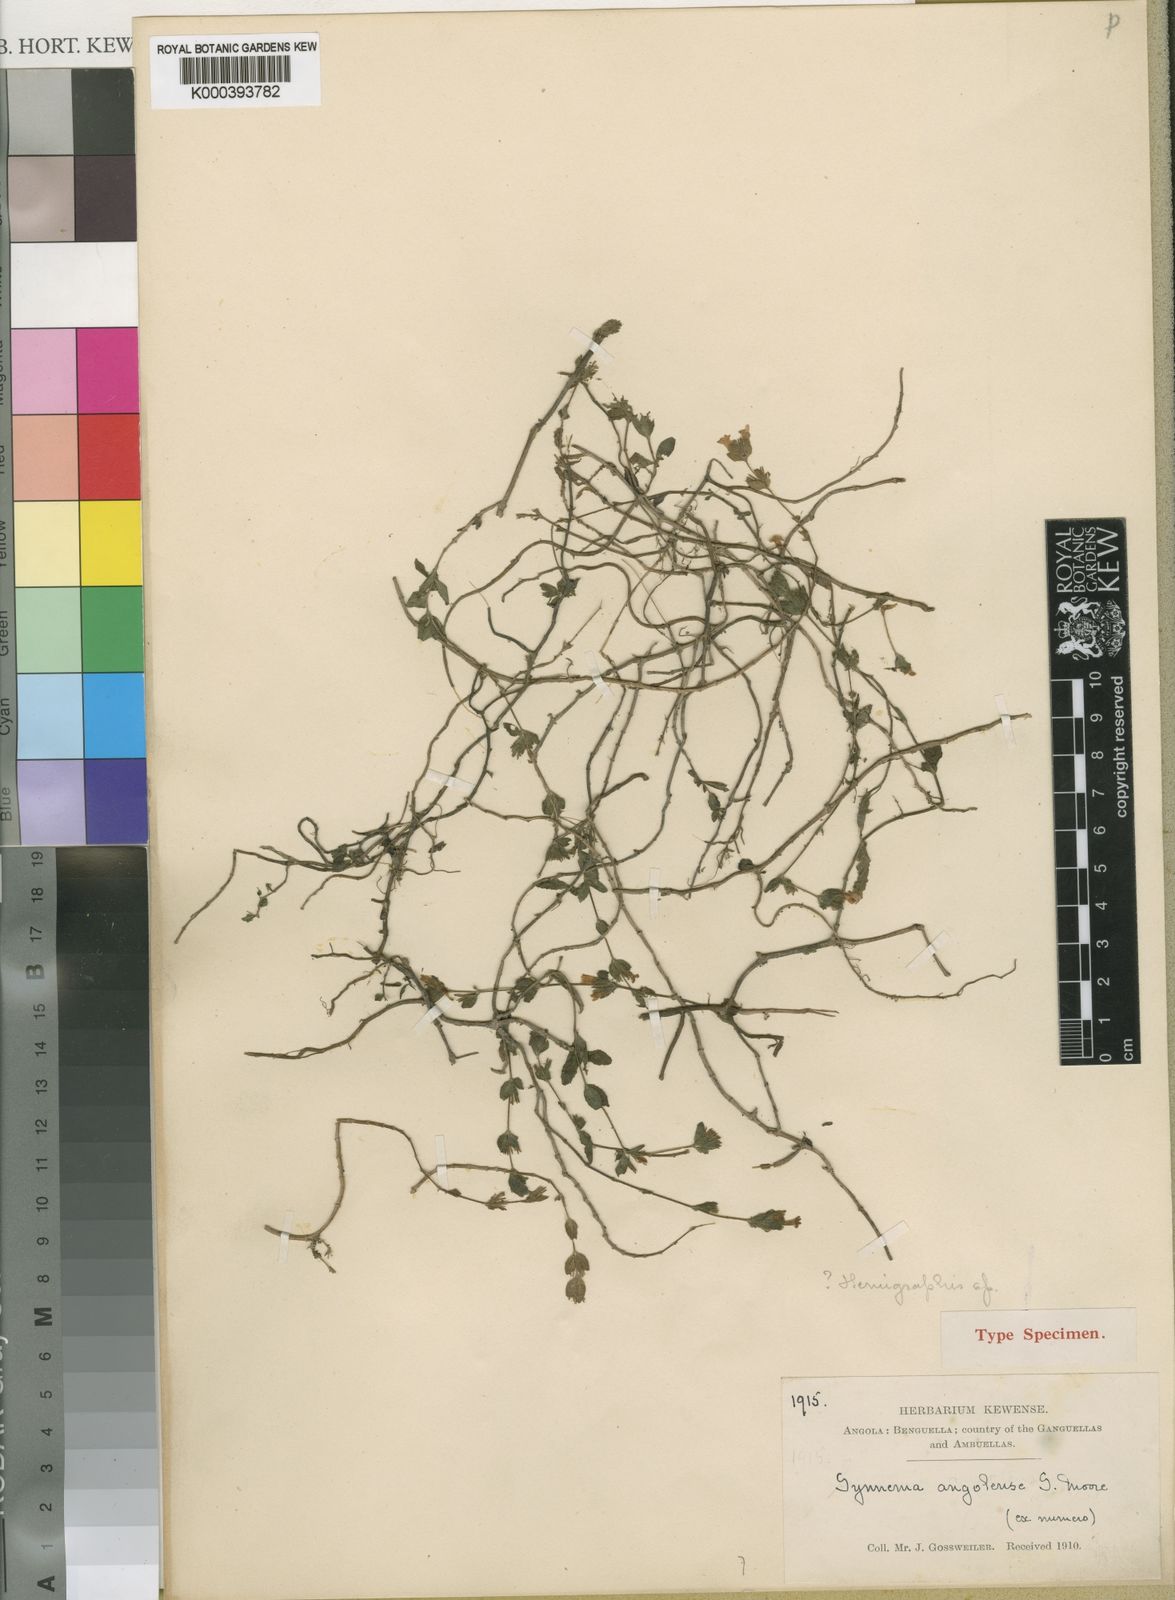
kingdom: Plantae
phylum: Tracheophyta
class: Magnoliopsida
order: Lamiales
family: Acanthaceae
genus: Hygrophila
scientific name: Hygrophila abyssinica
